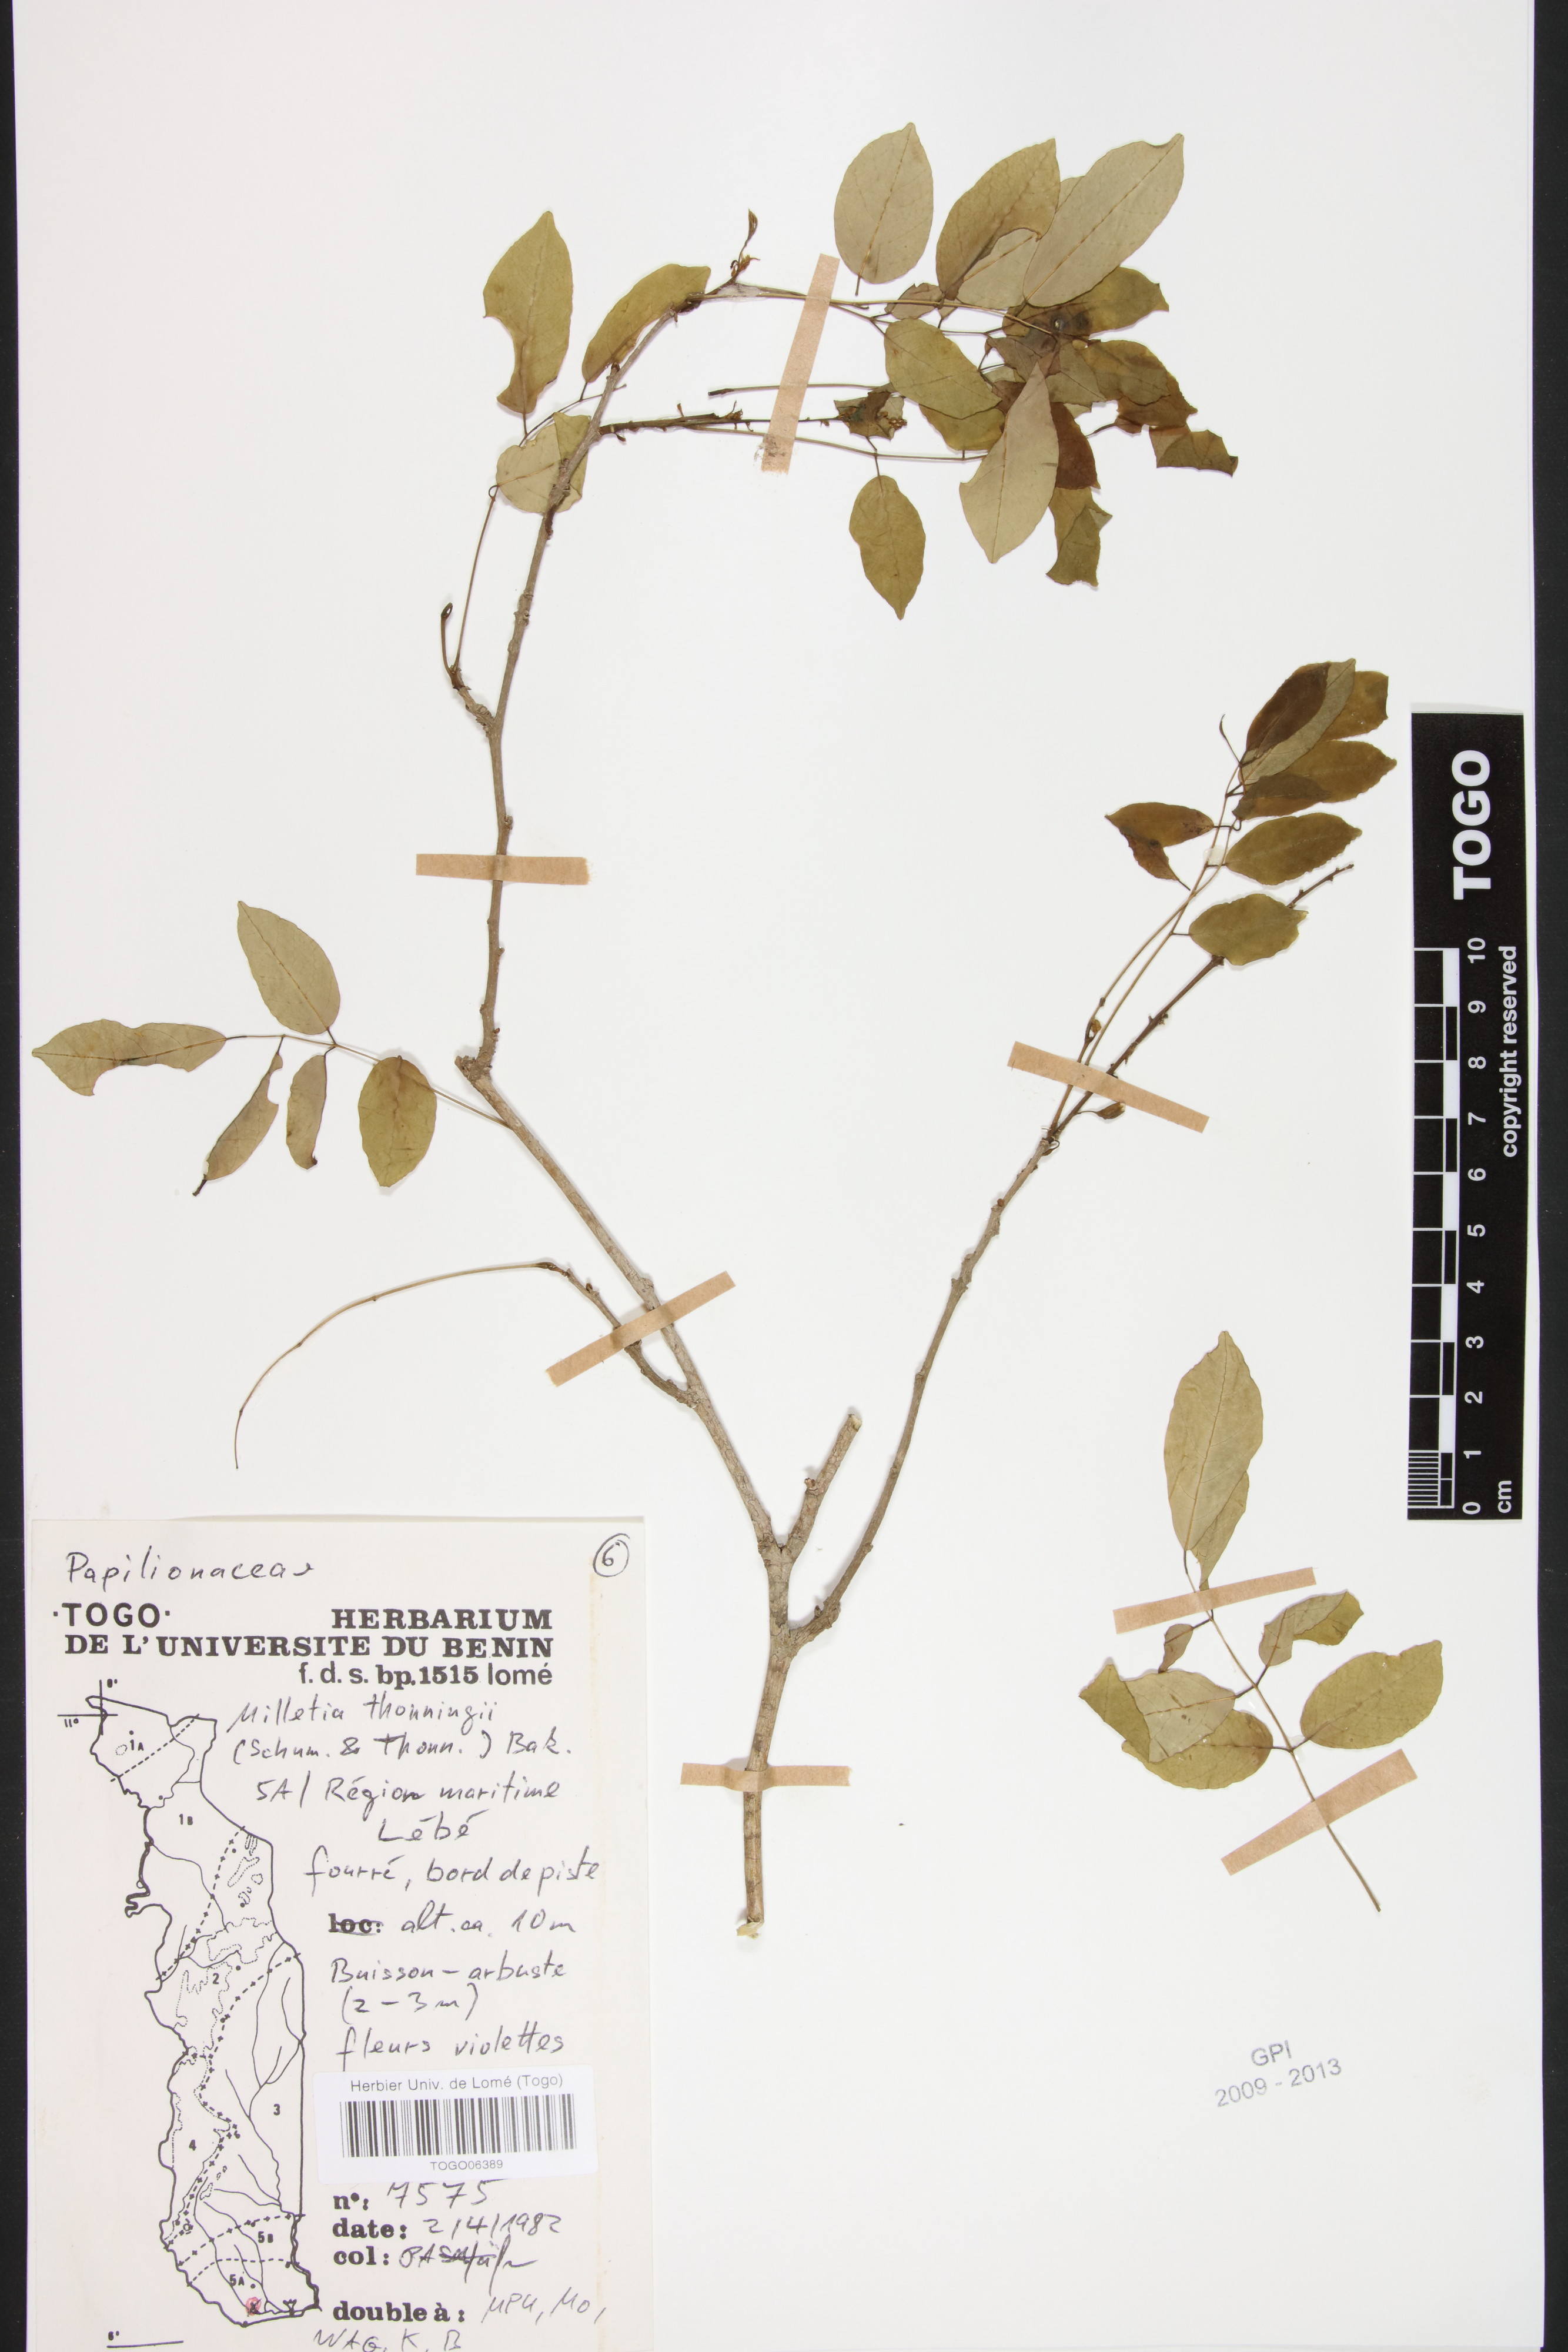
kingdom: Plantae
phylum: Tracheophyta
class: Magnoliopsida
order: Fabales
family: Fabaceae
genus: Millettia
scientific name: Millettia thonningii
